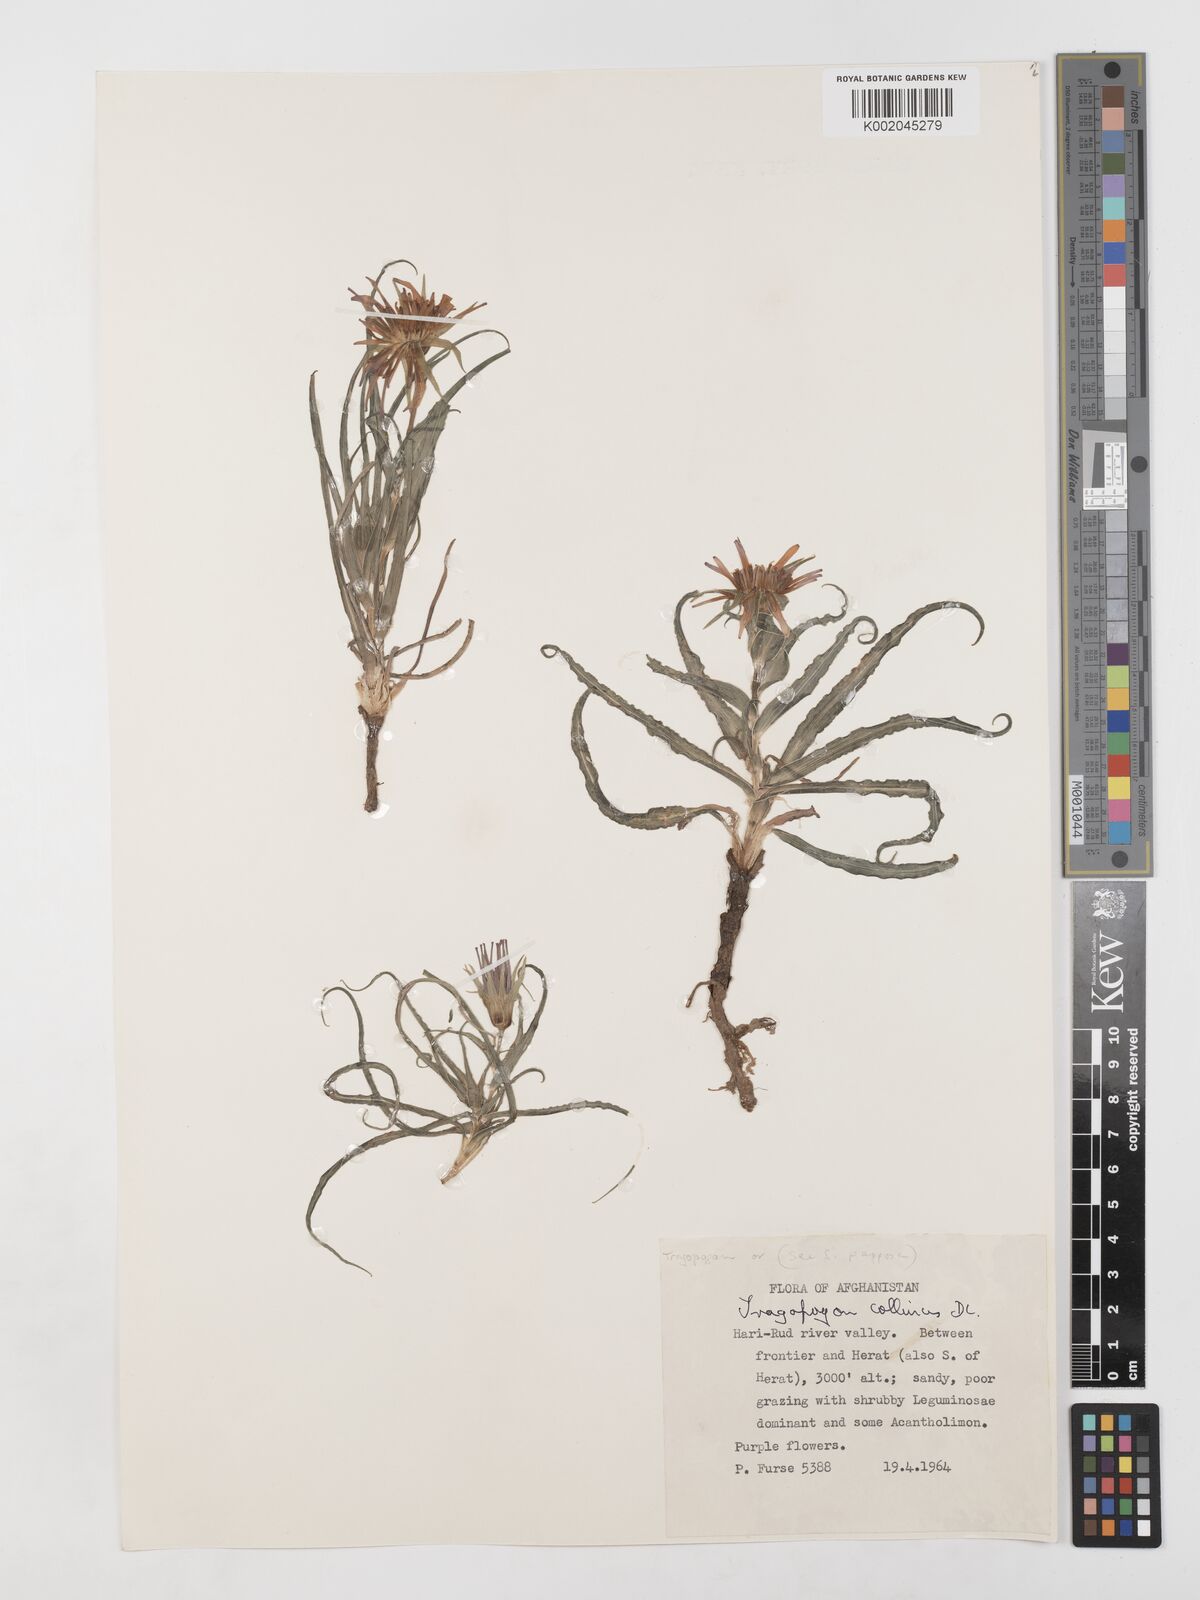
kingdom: Plantae
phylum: Tracheophyta
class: Magnoliopsida
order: Asterales
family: Asteraceae
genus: Tragopogon
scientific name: Tragopogon collinus
